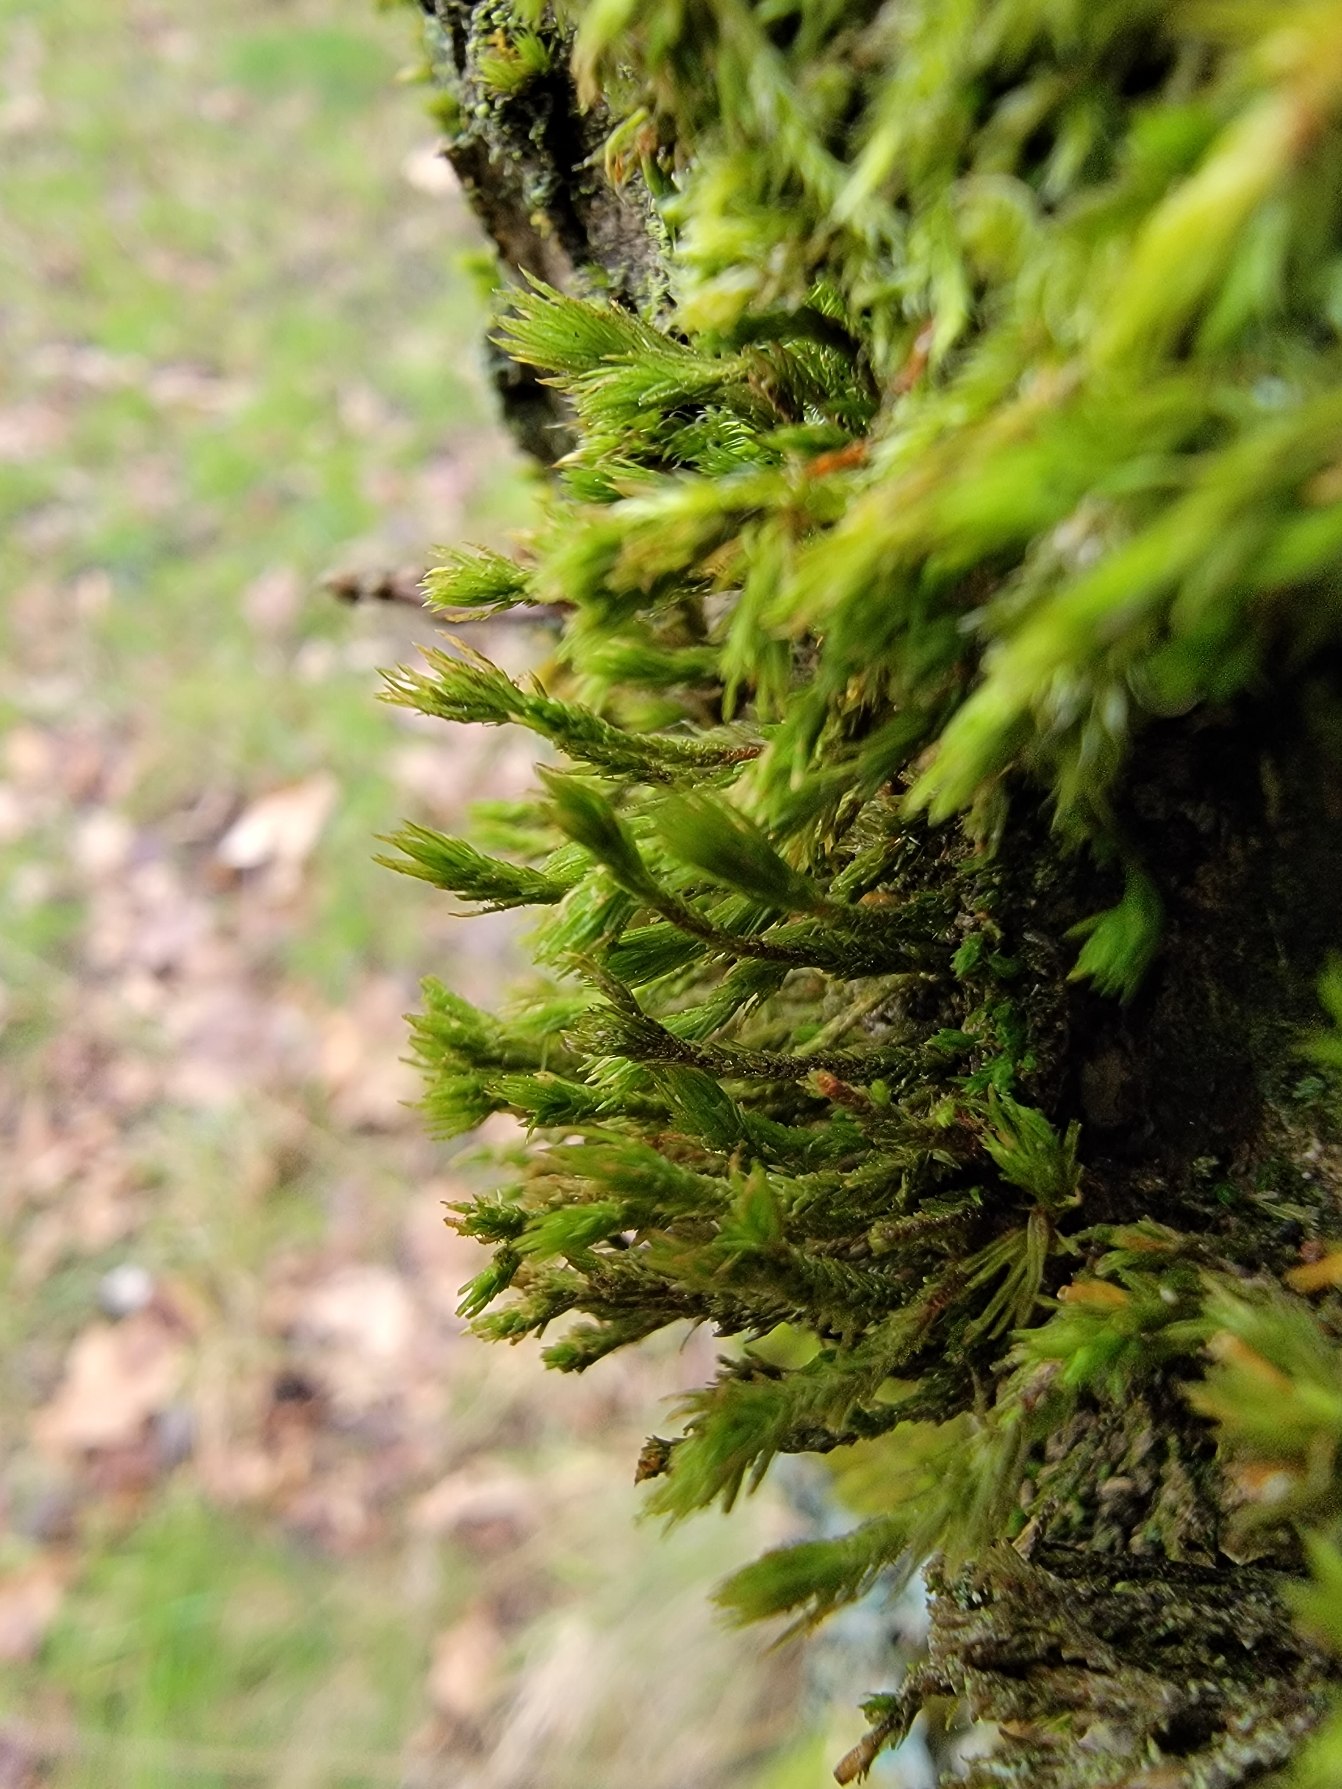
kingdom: Plantae
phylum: Bryophyta
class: Bryopsida
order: Orthotrichales
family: Orthotrichaceae
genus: Pulvigera
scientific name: Pulvigera lyellii
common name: Stor furehætte
